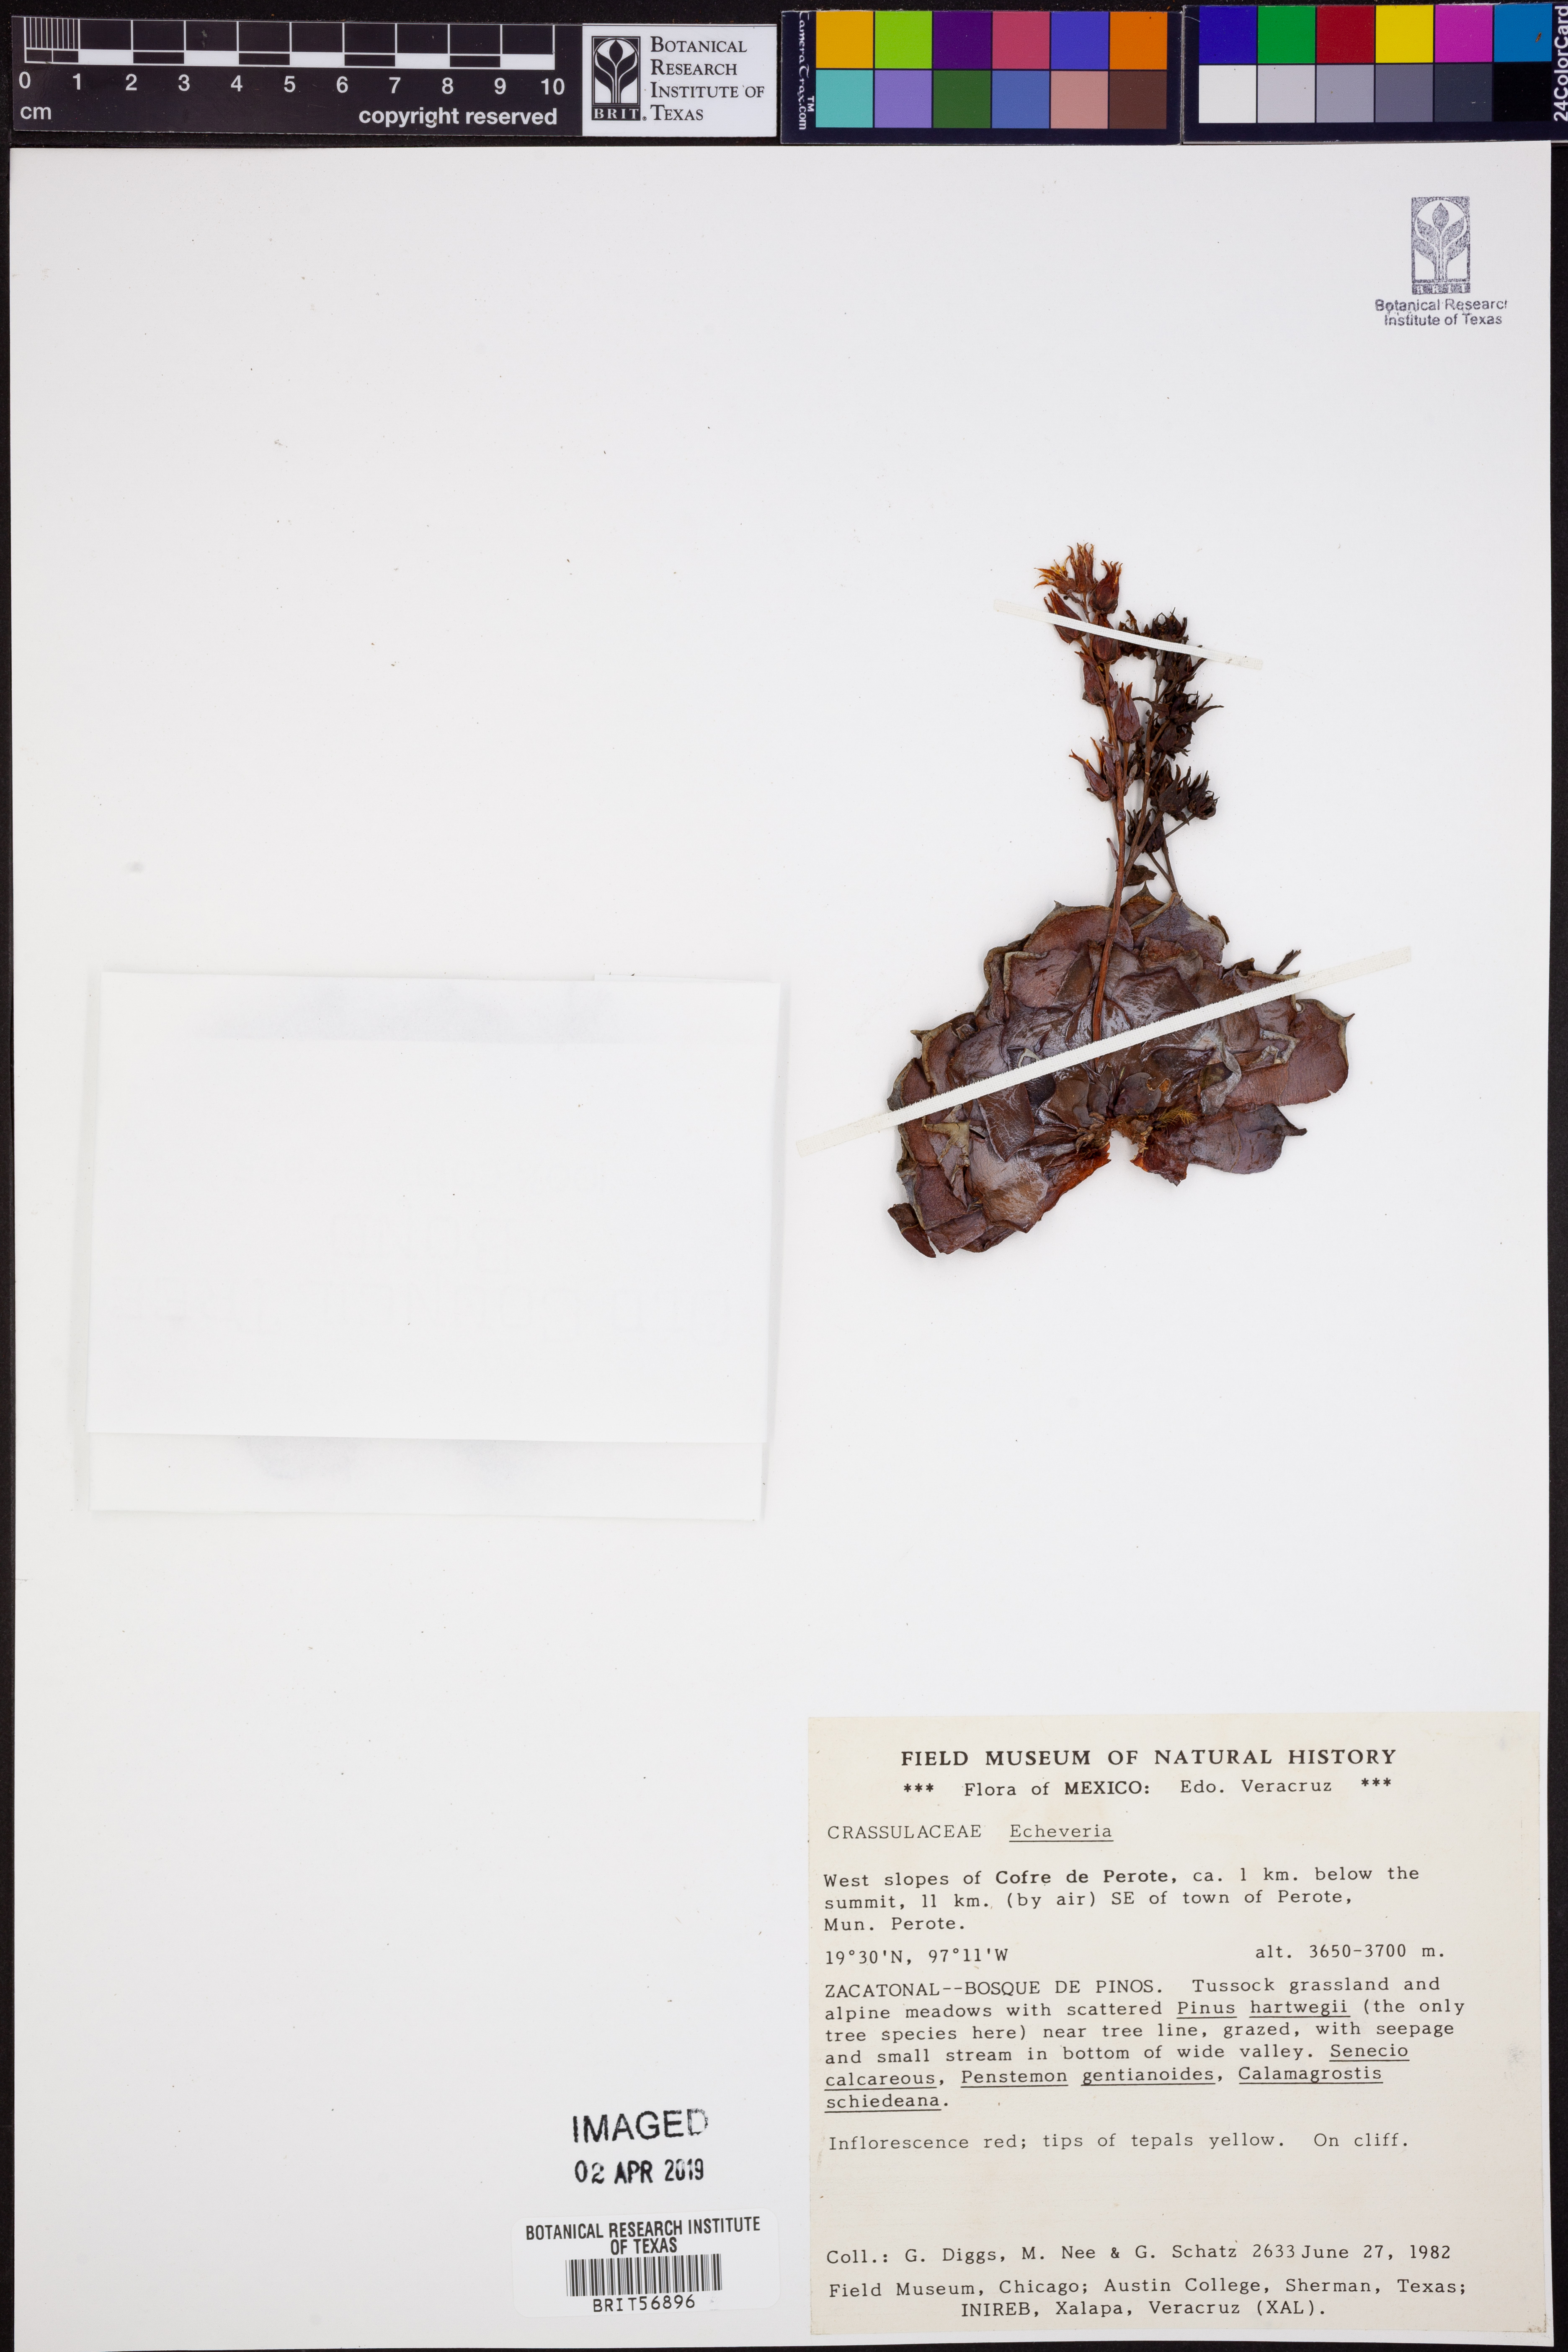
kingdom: Plantae
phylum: Tracheophyta
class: Magnoliopsida
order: Saxifragales
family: Crassulaceae
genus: Echeveria
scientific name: Echeveria
